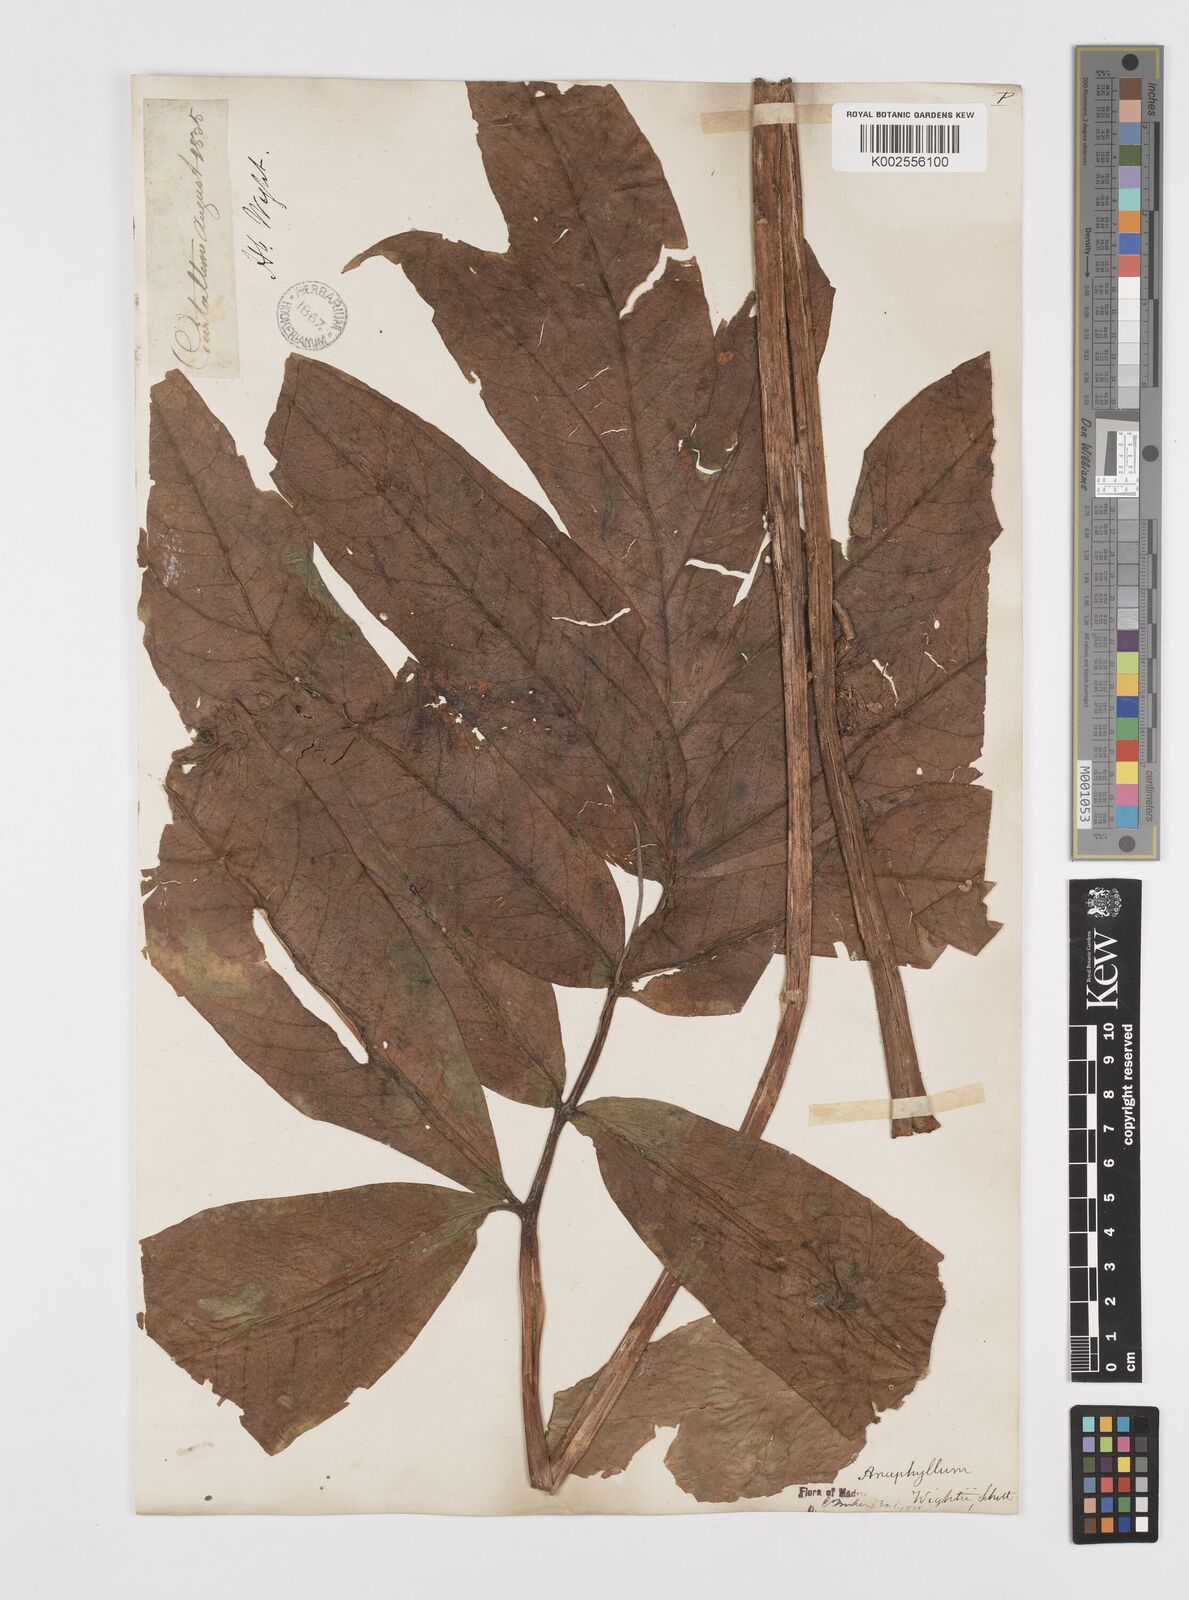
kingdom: Plantae
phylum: Tracheophyta
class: Liliopsida
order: Alismatales
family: Araceae
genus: Anaphyllum
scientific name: Anaphyllum wightii
